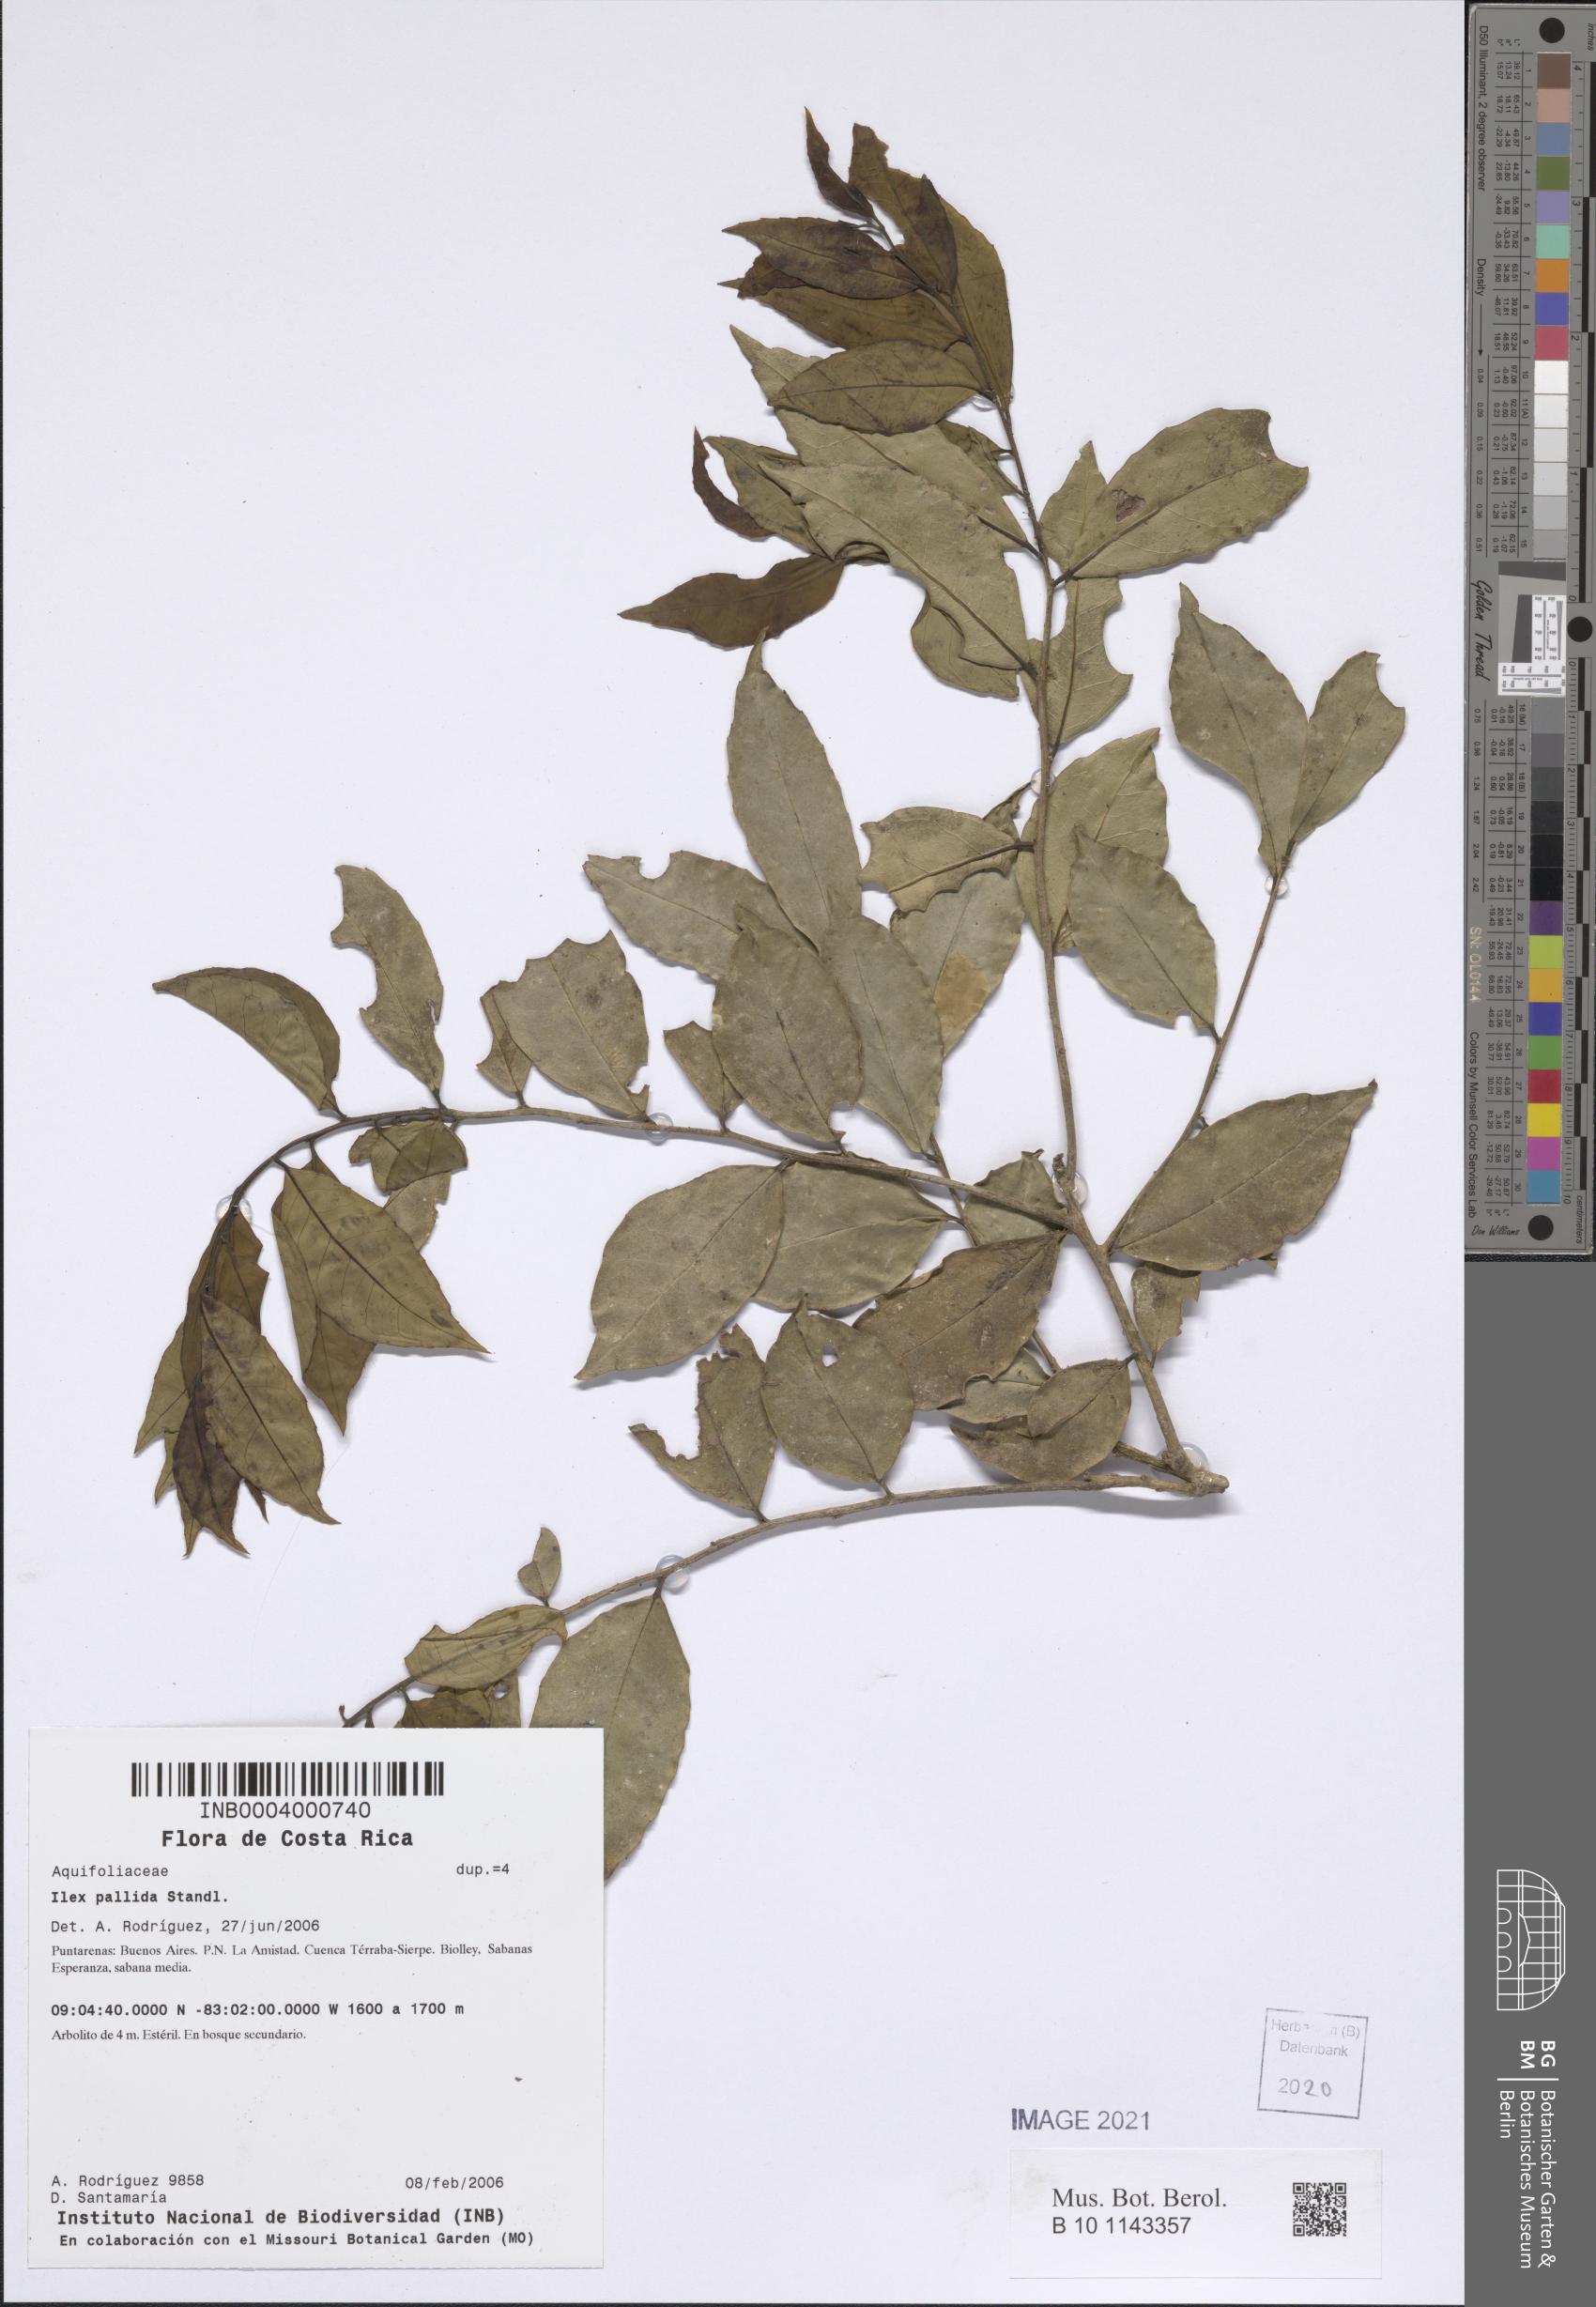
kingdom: Plantae
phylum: Tracheophyta
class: Magnoliopsida
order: Aquifoliales
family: Aquifoliaceae
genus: Ilex
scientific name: Ilex pallida
